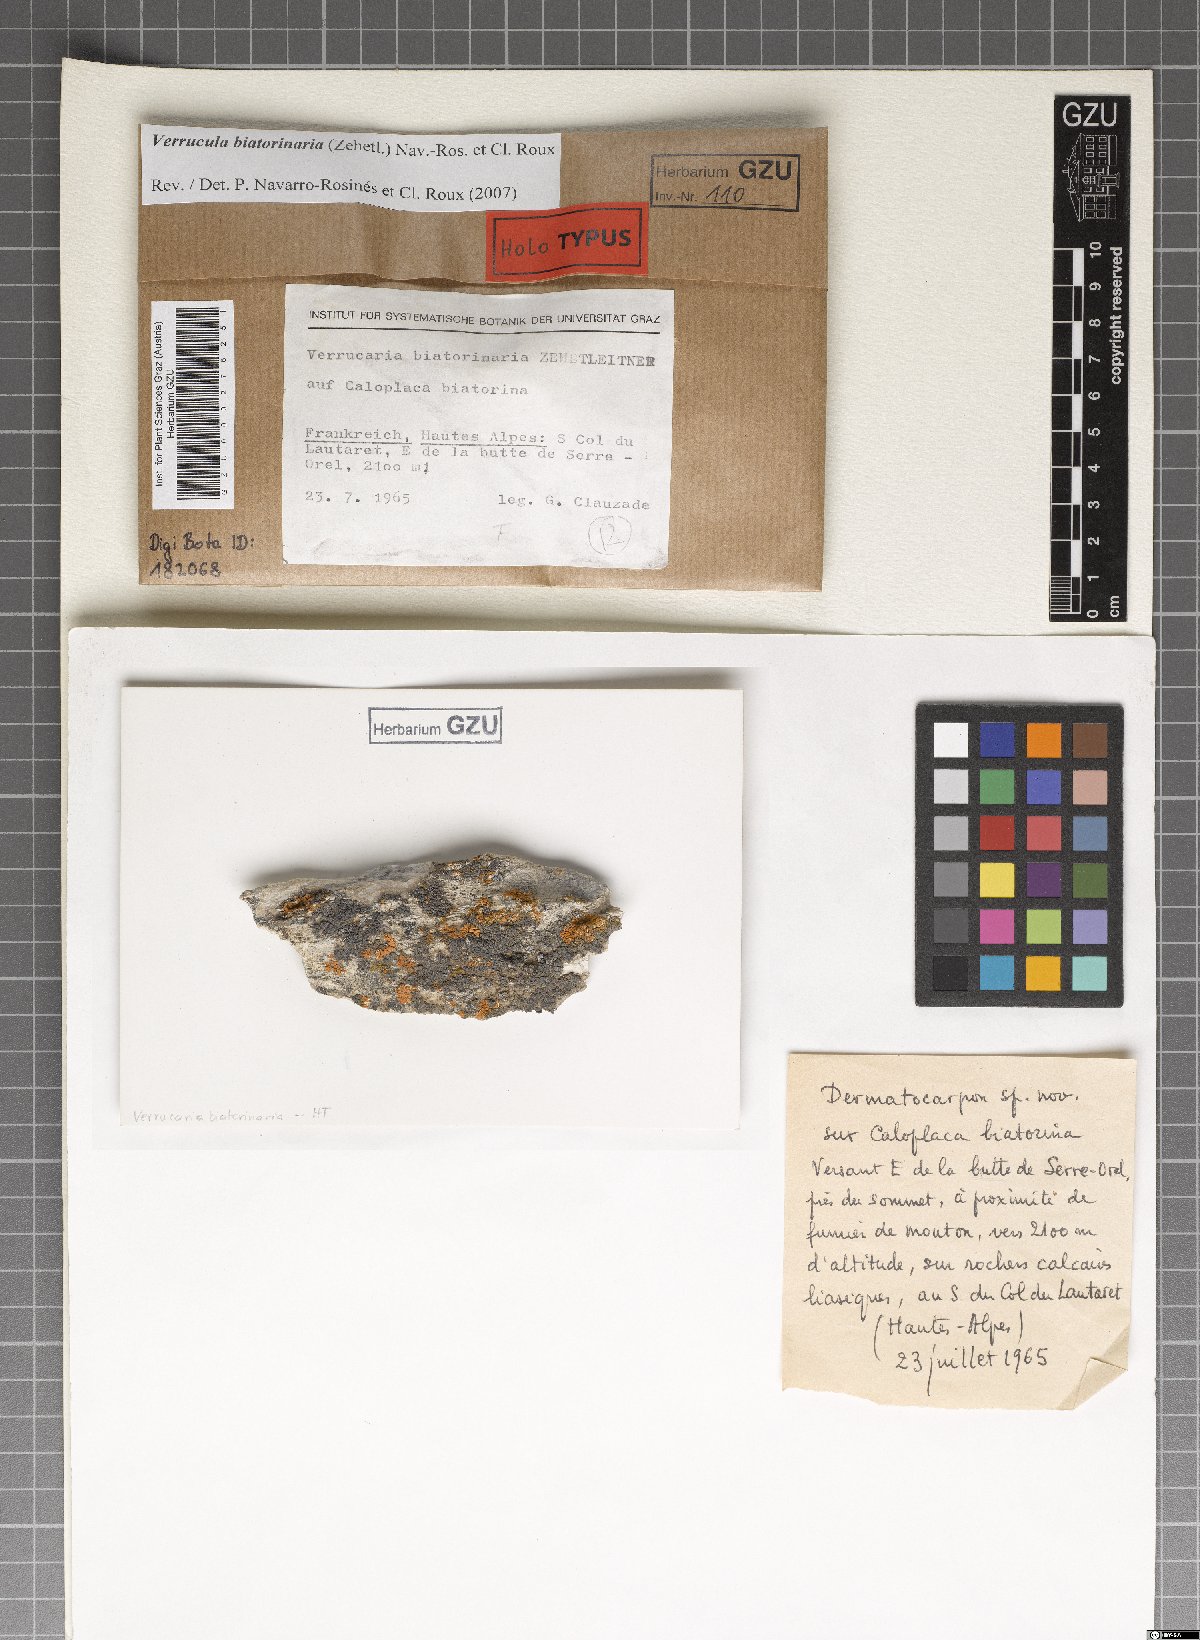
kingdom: Fungi
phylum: Ascomycota
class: Eurotiomycetes
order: Verrucariales
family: Verrucariaceae
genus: Verrucula
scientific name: Verrucula biatorinaria
